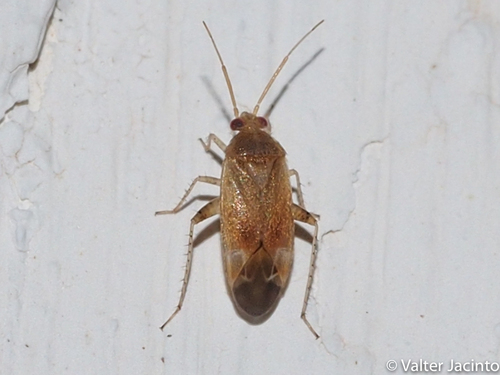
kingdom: Animalia
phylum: Arthropoda
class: Insecta
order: Hemiptera
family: Miridae
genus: Psallus
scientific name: Psallus varians
